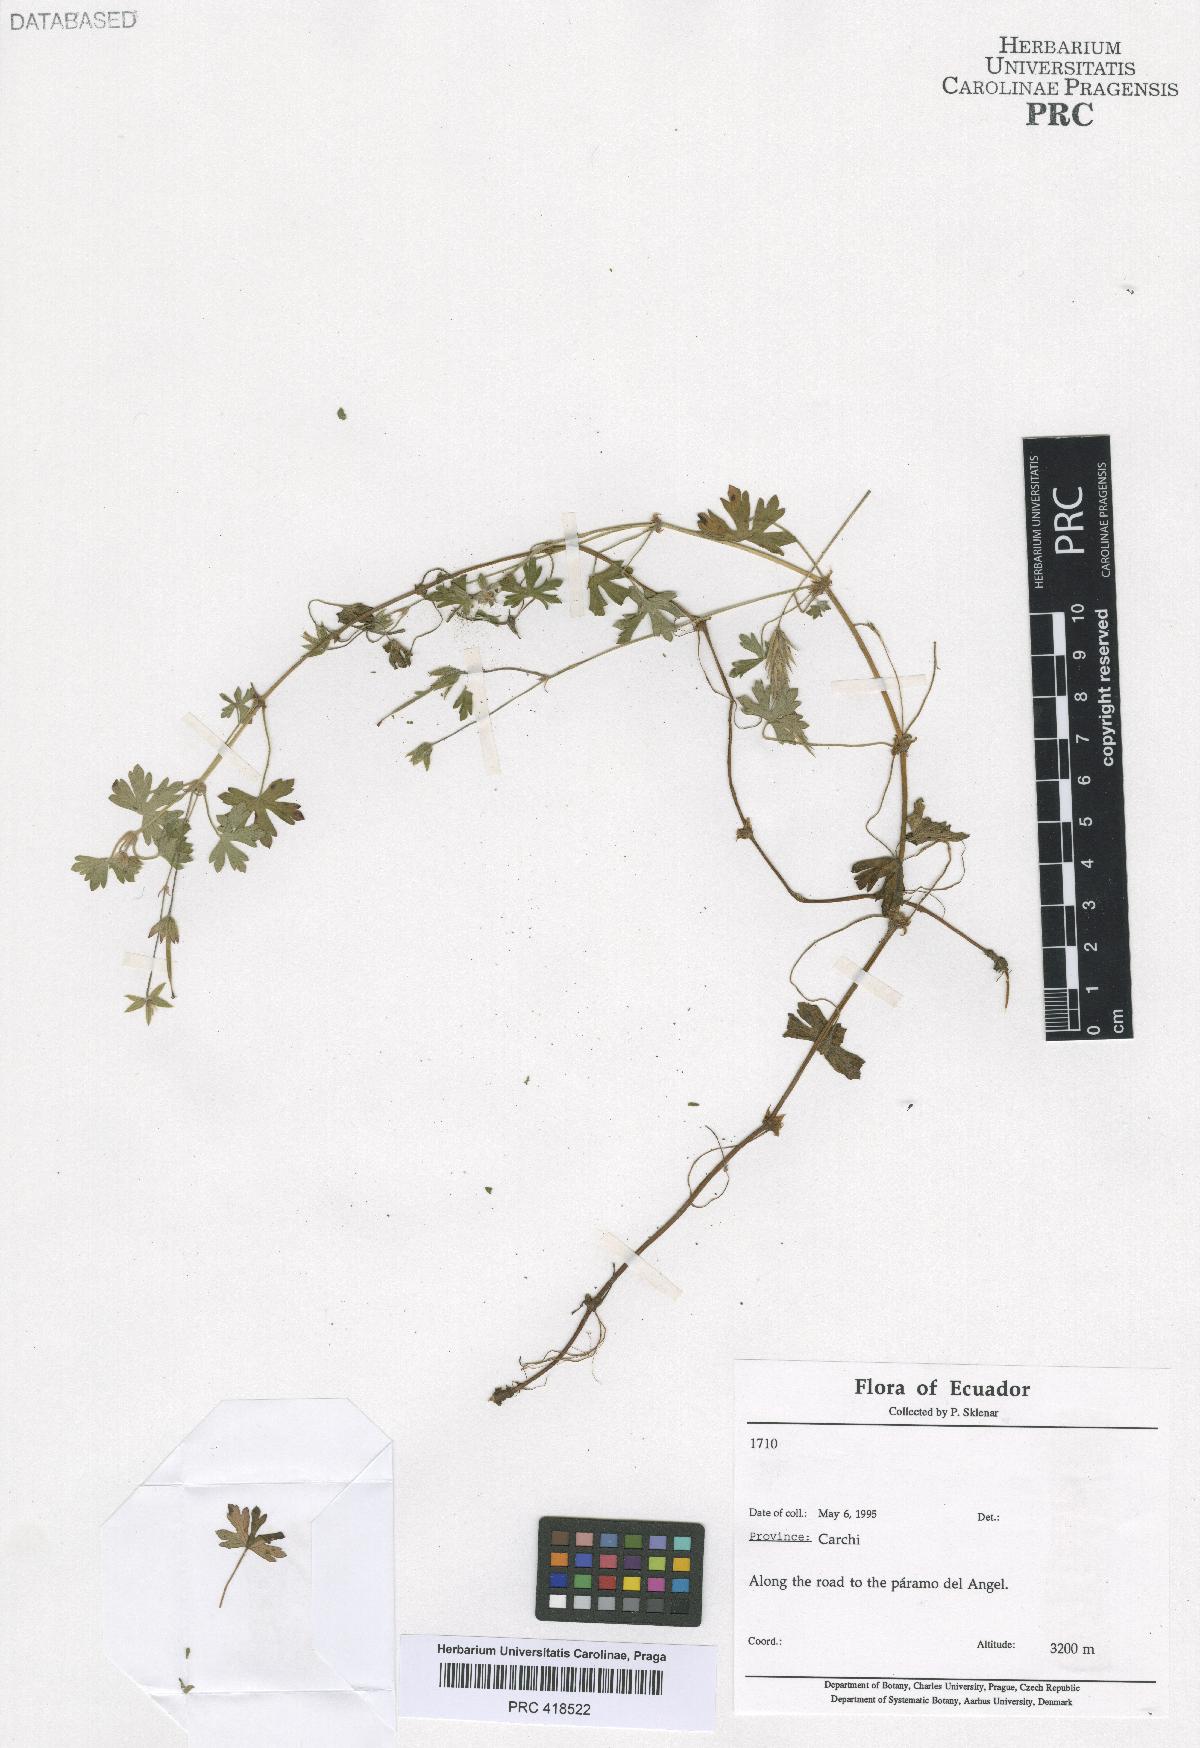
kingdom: Plantae
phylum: Tracheophyta
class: Magnoliopsida
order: Geraniales
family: Geraniaceae
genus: Geranium
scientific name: Geranium killipii
